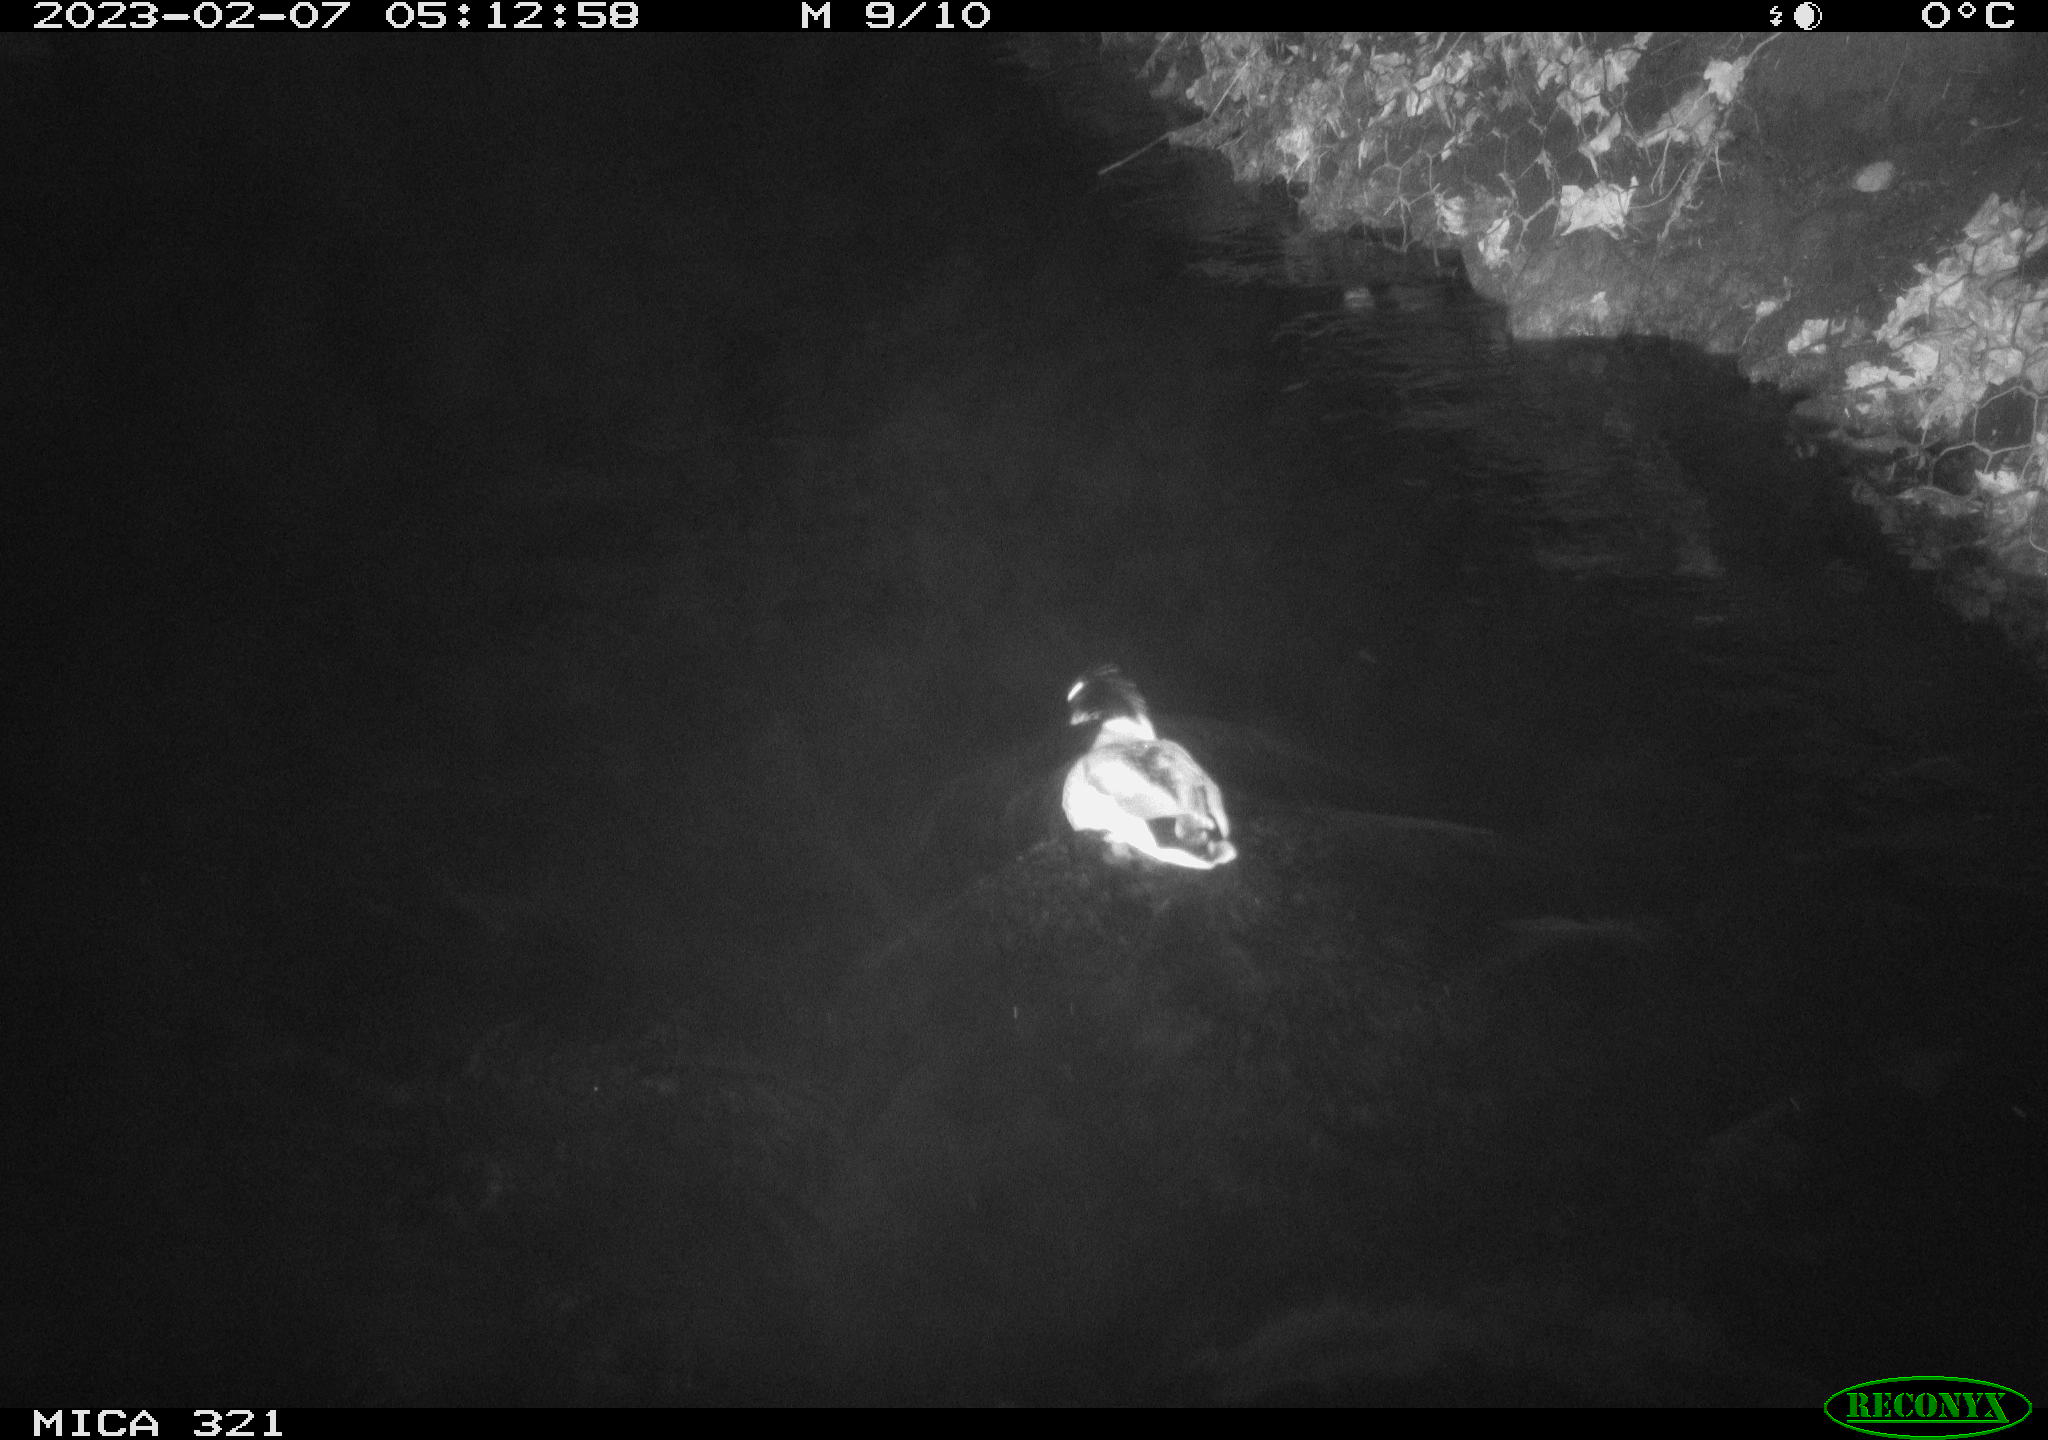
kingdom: Animalia
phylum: Chordata
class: Aves
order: Anseriformes
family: Anatidae
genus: Anas
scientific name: Anas
